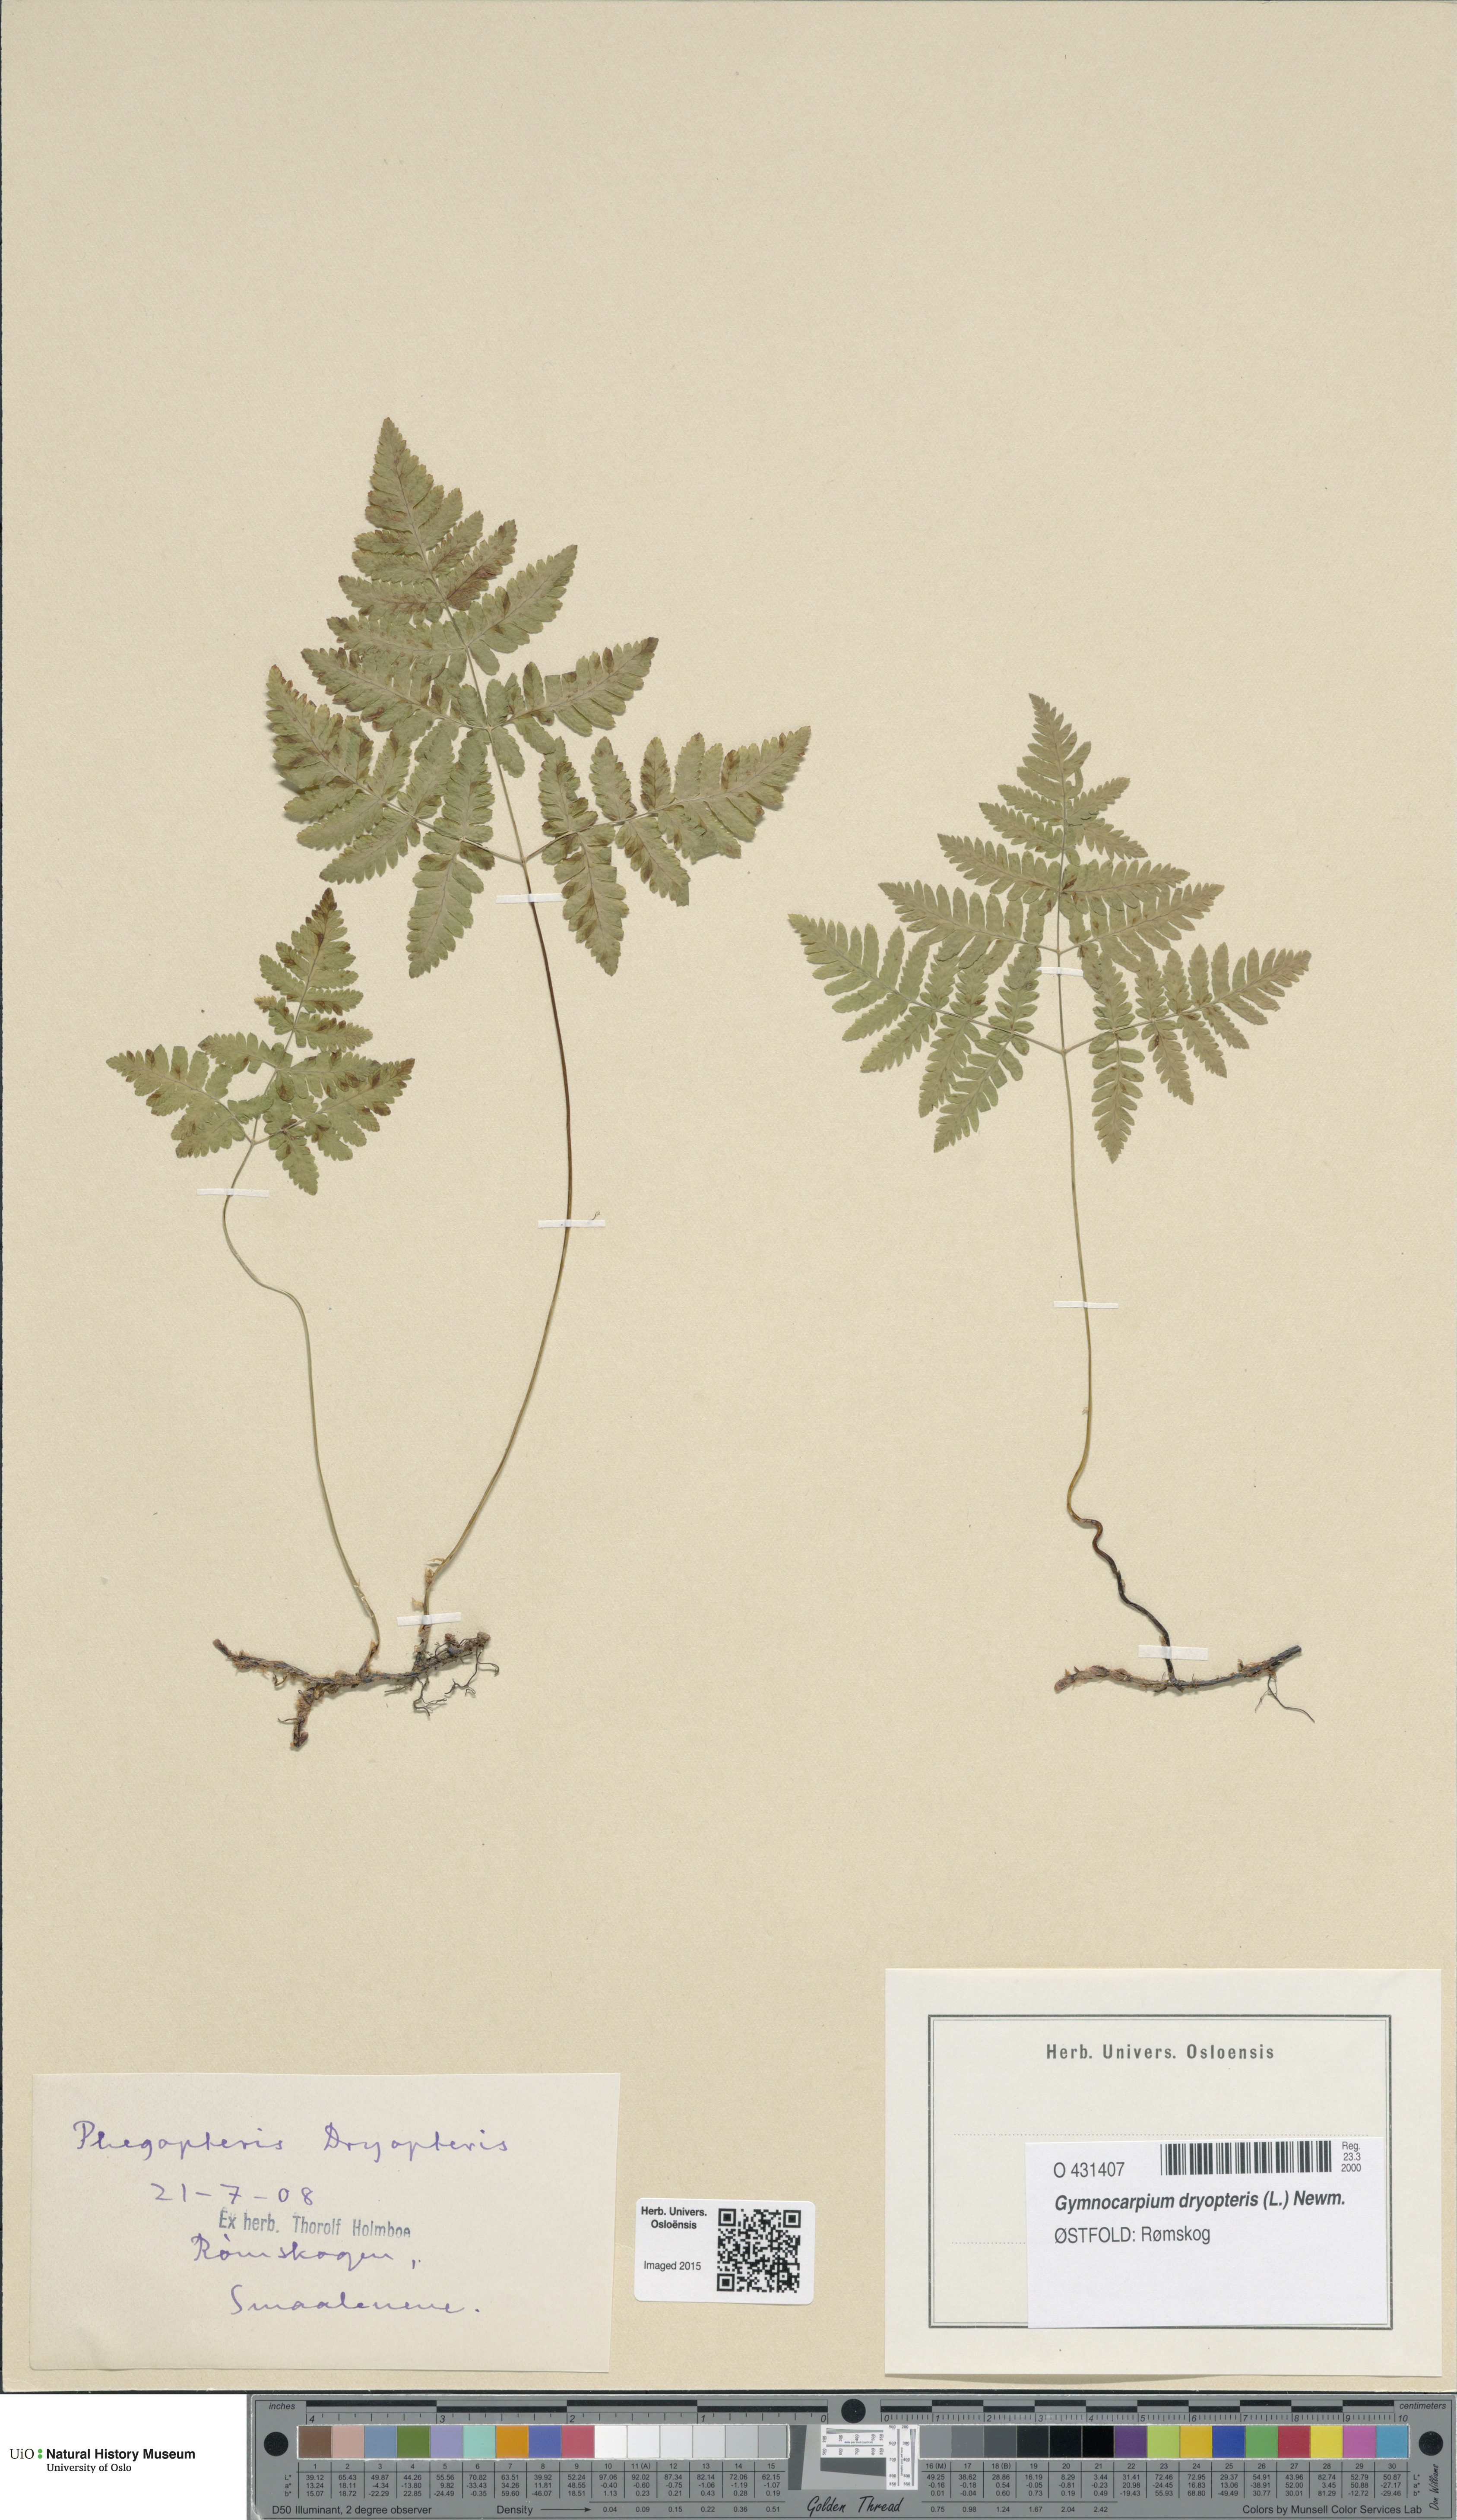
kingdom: Plantae
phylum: Tracheophyta
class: Polypodiopsida
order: Polypodiales
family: Cystopteridaceae
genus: Gymnocarpium
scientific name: Gymnocarpium dryopteris
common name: Oak fern
